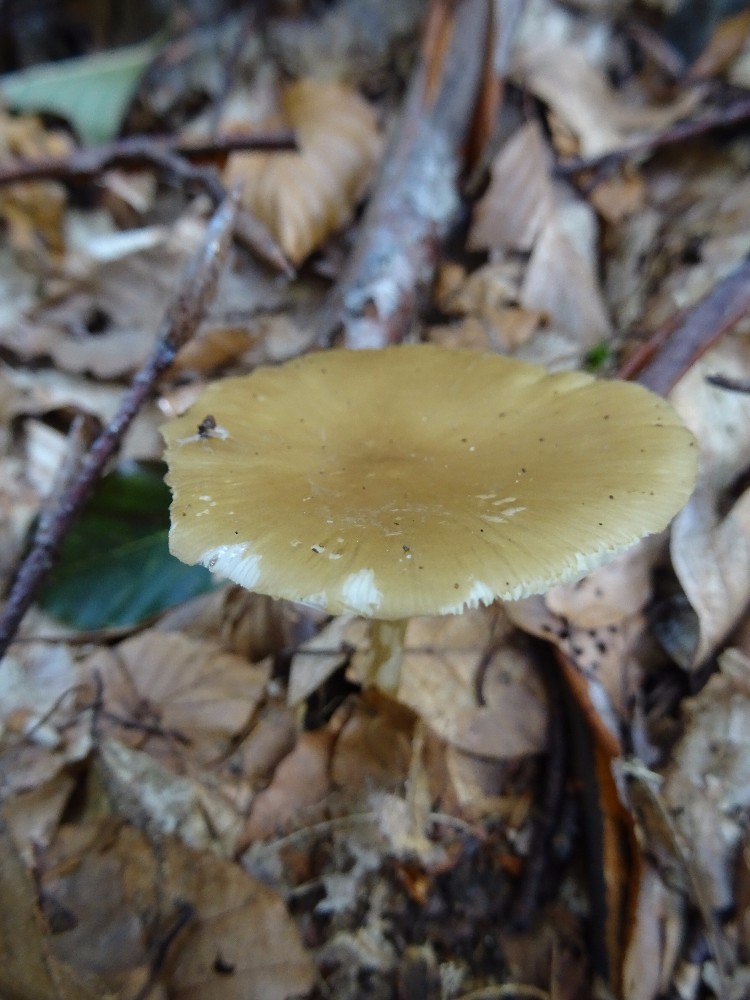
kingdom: Fungi
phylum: Basidiomycota
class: Agaricomycetes
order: Agaricales
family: Porotheleaceae
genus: Hydropodia
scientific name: Hydropodia subalpina
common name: vår-fnugfod
